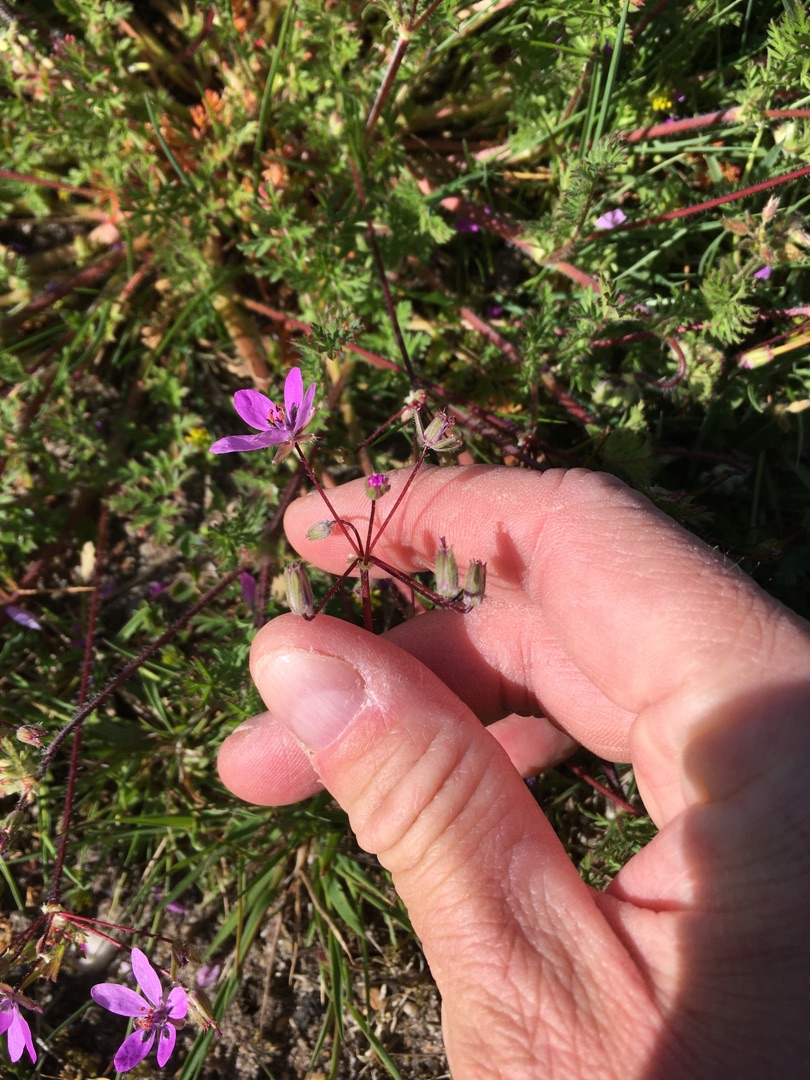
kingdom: Plantae
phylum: Tracheophyta
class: Magnoliopsida
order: Geraniales
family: Geraniaceae
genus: Erodium
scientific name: Erodium cicutarium
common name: Hejrenæb
